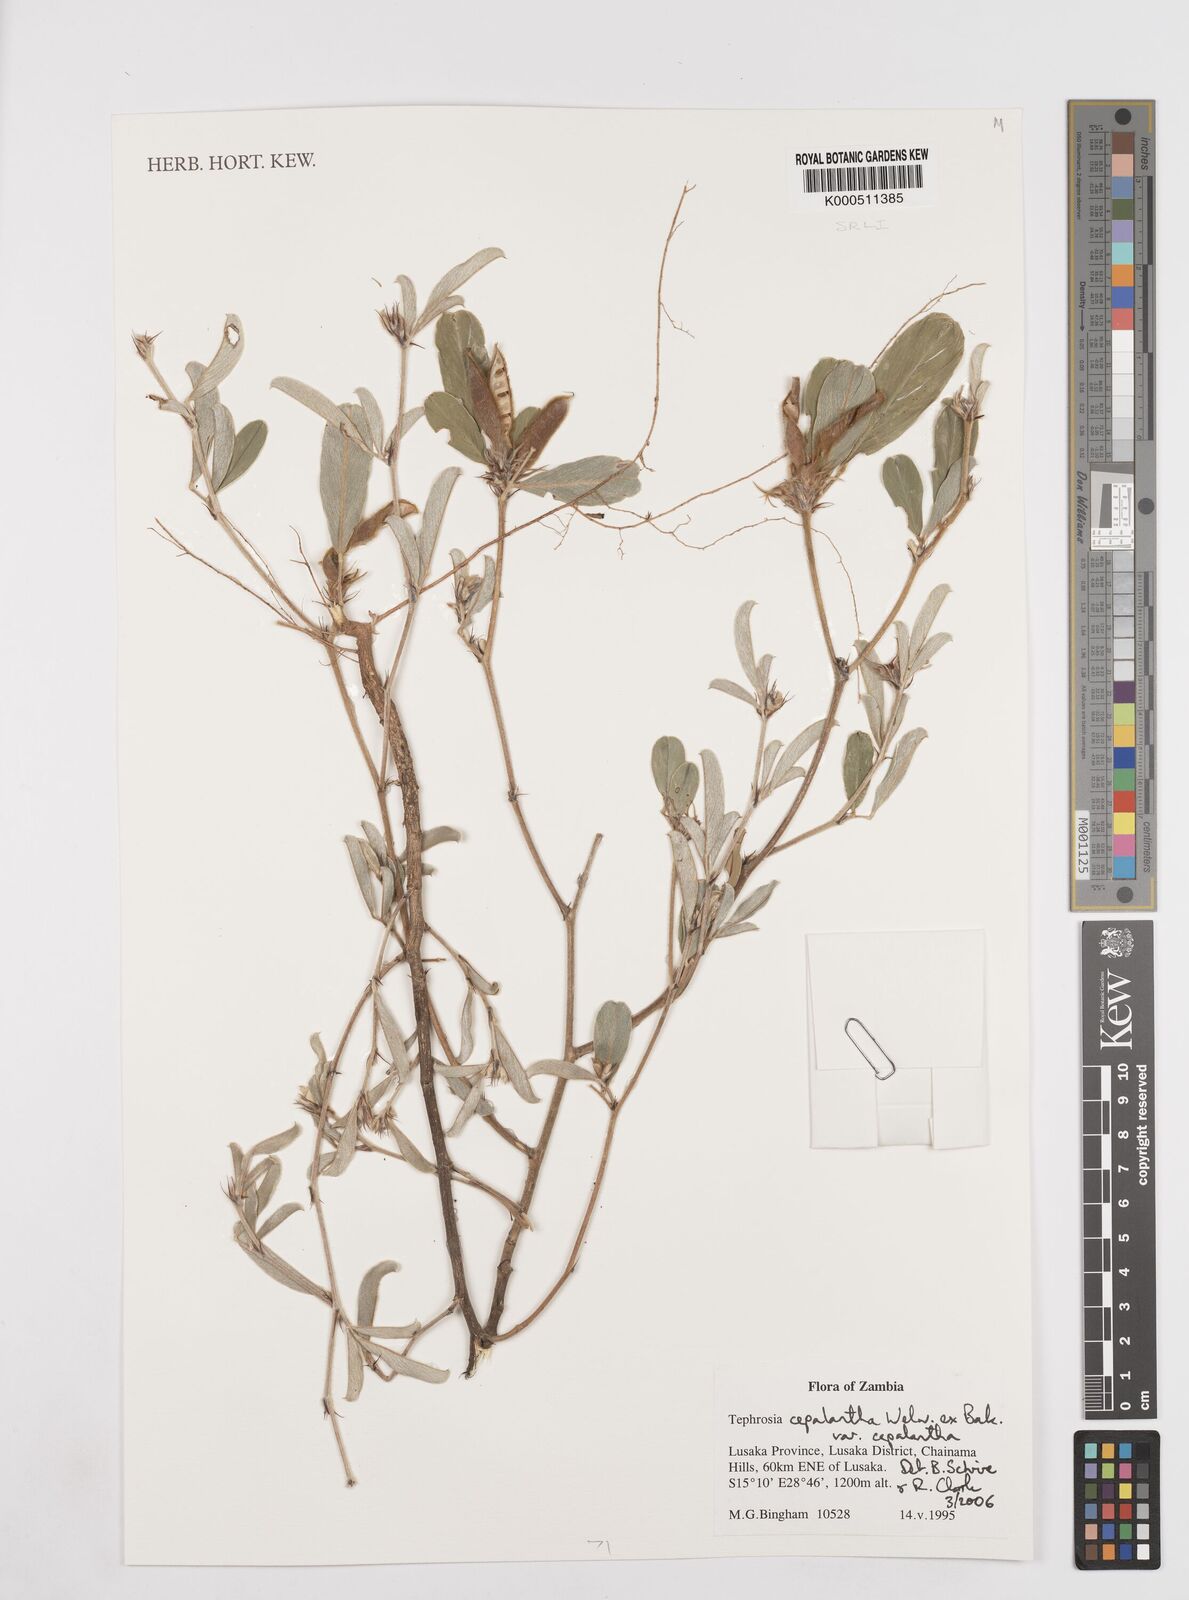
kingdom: Plantae
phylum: Tracheophyta
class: Magnoliopsida
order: Fabales
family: Fabaceae
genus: Tephrosia
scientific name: Tephrosia cephalantha
